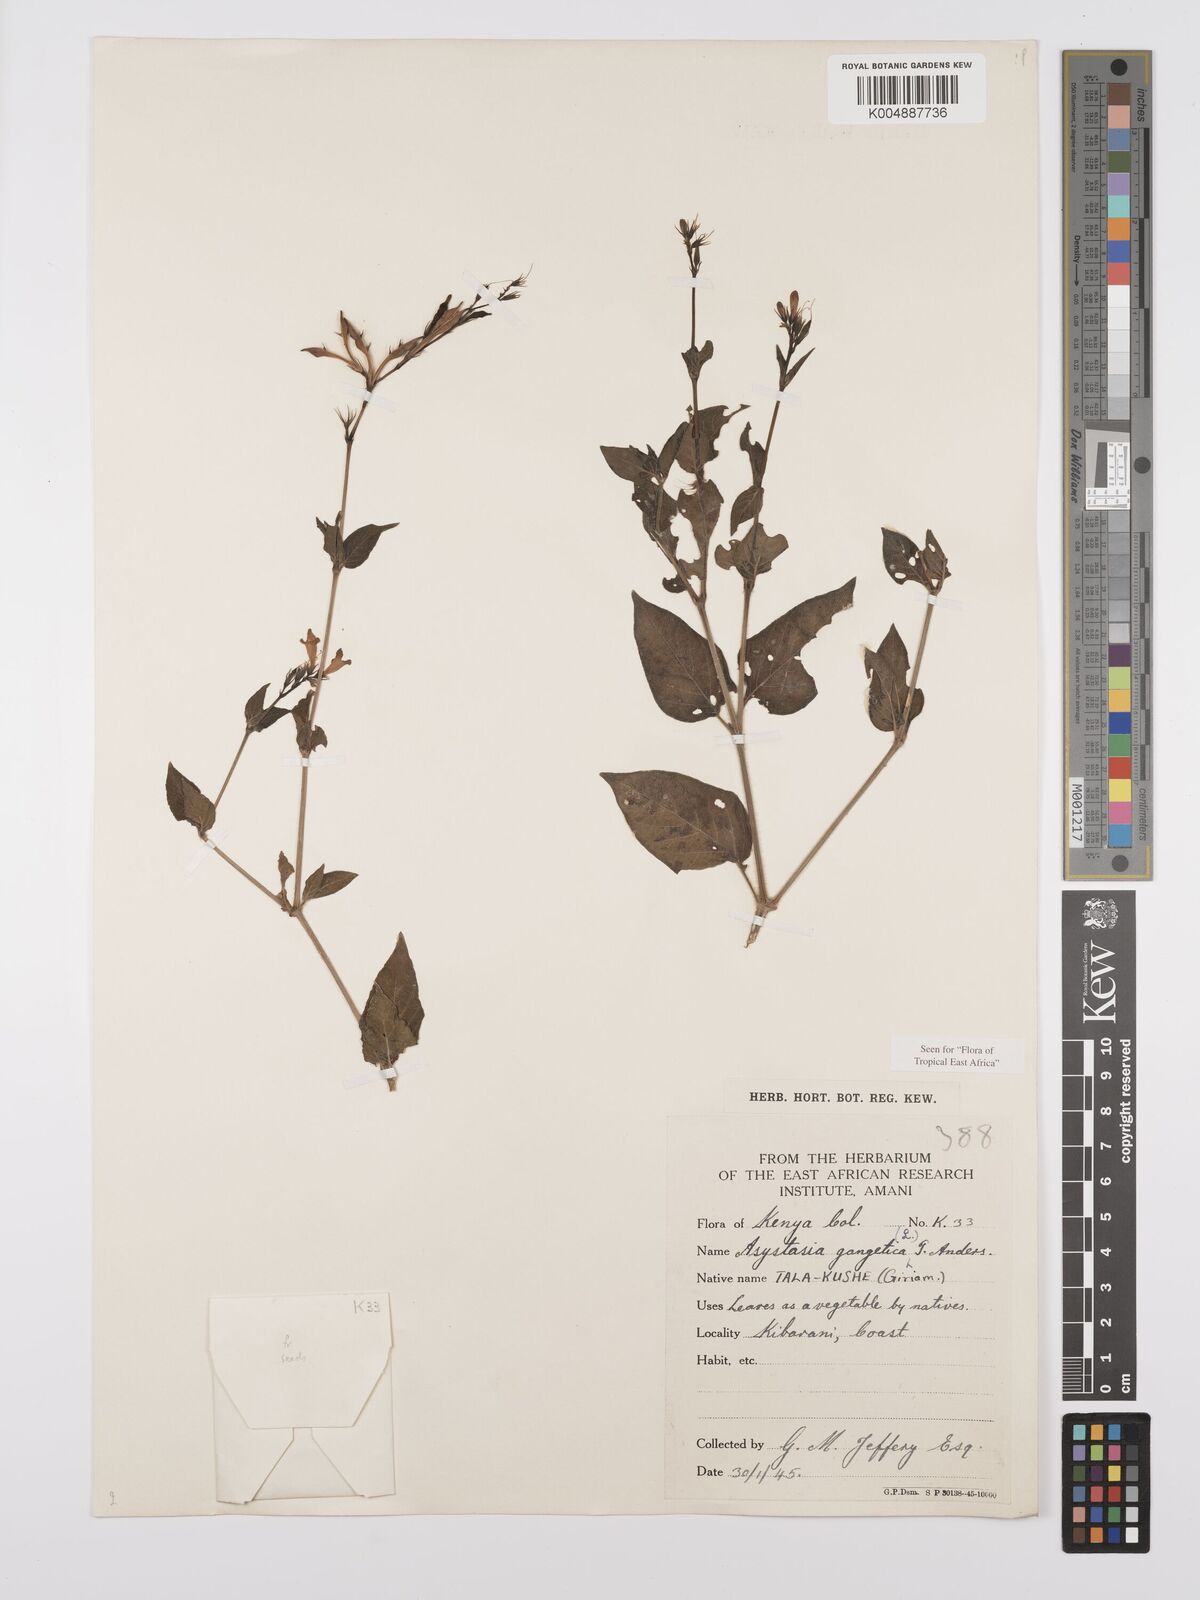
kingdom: Plantae
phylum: Tracheophyta
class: Magnoliopsida
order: Lamiales
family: Acanthaceae
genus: Asystasia
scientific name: Asystasia gangetica
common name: Chinese violet
